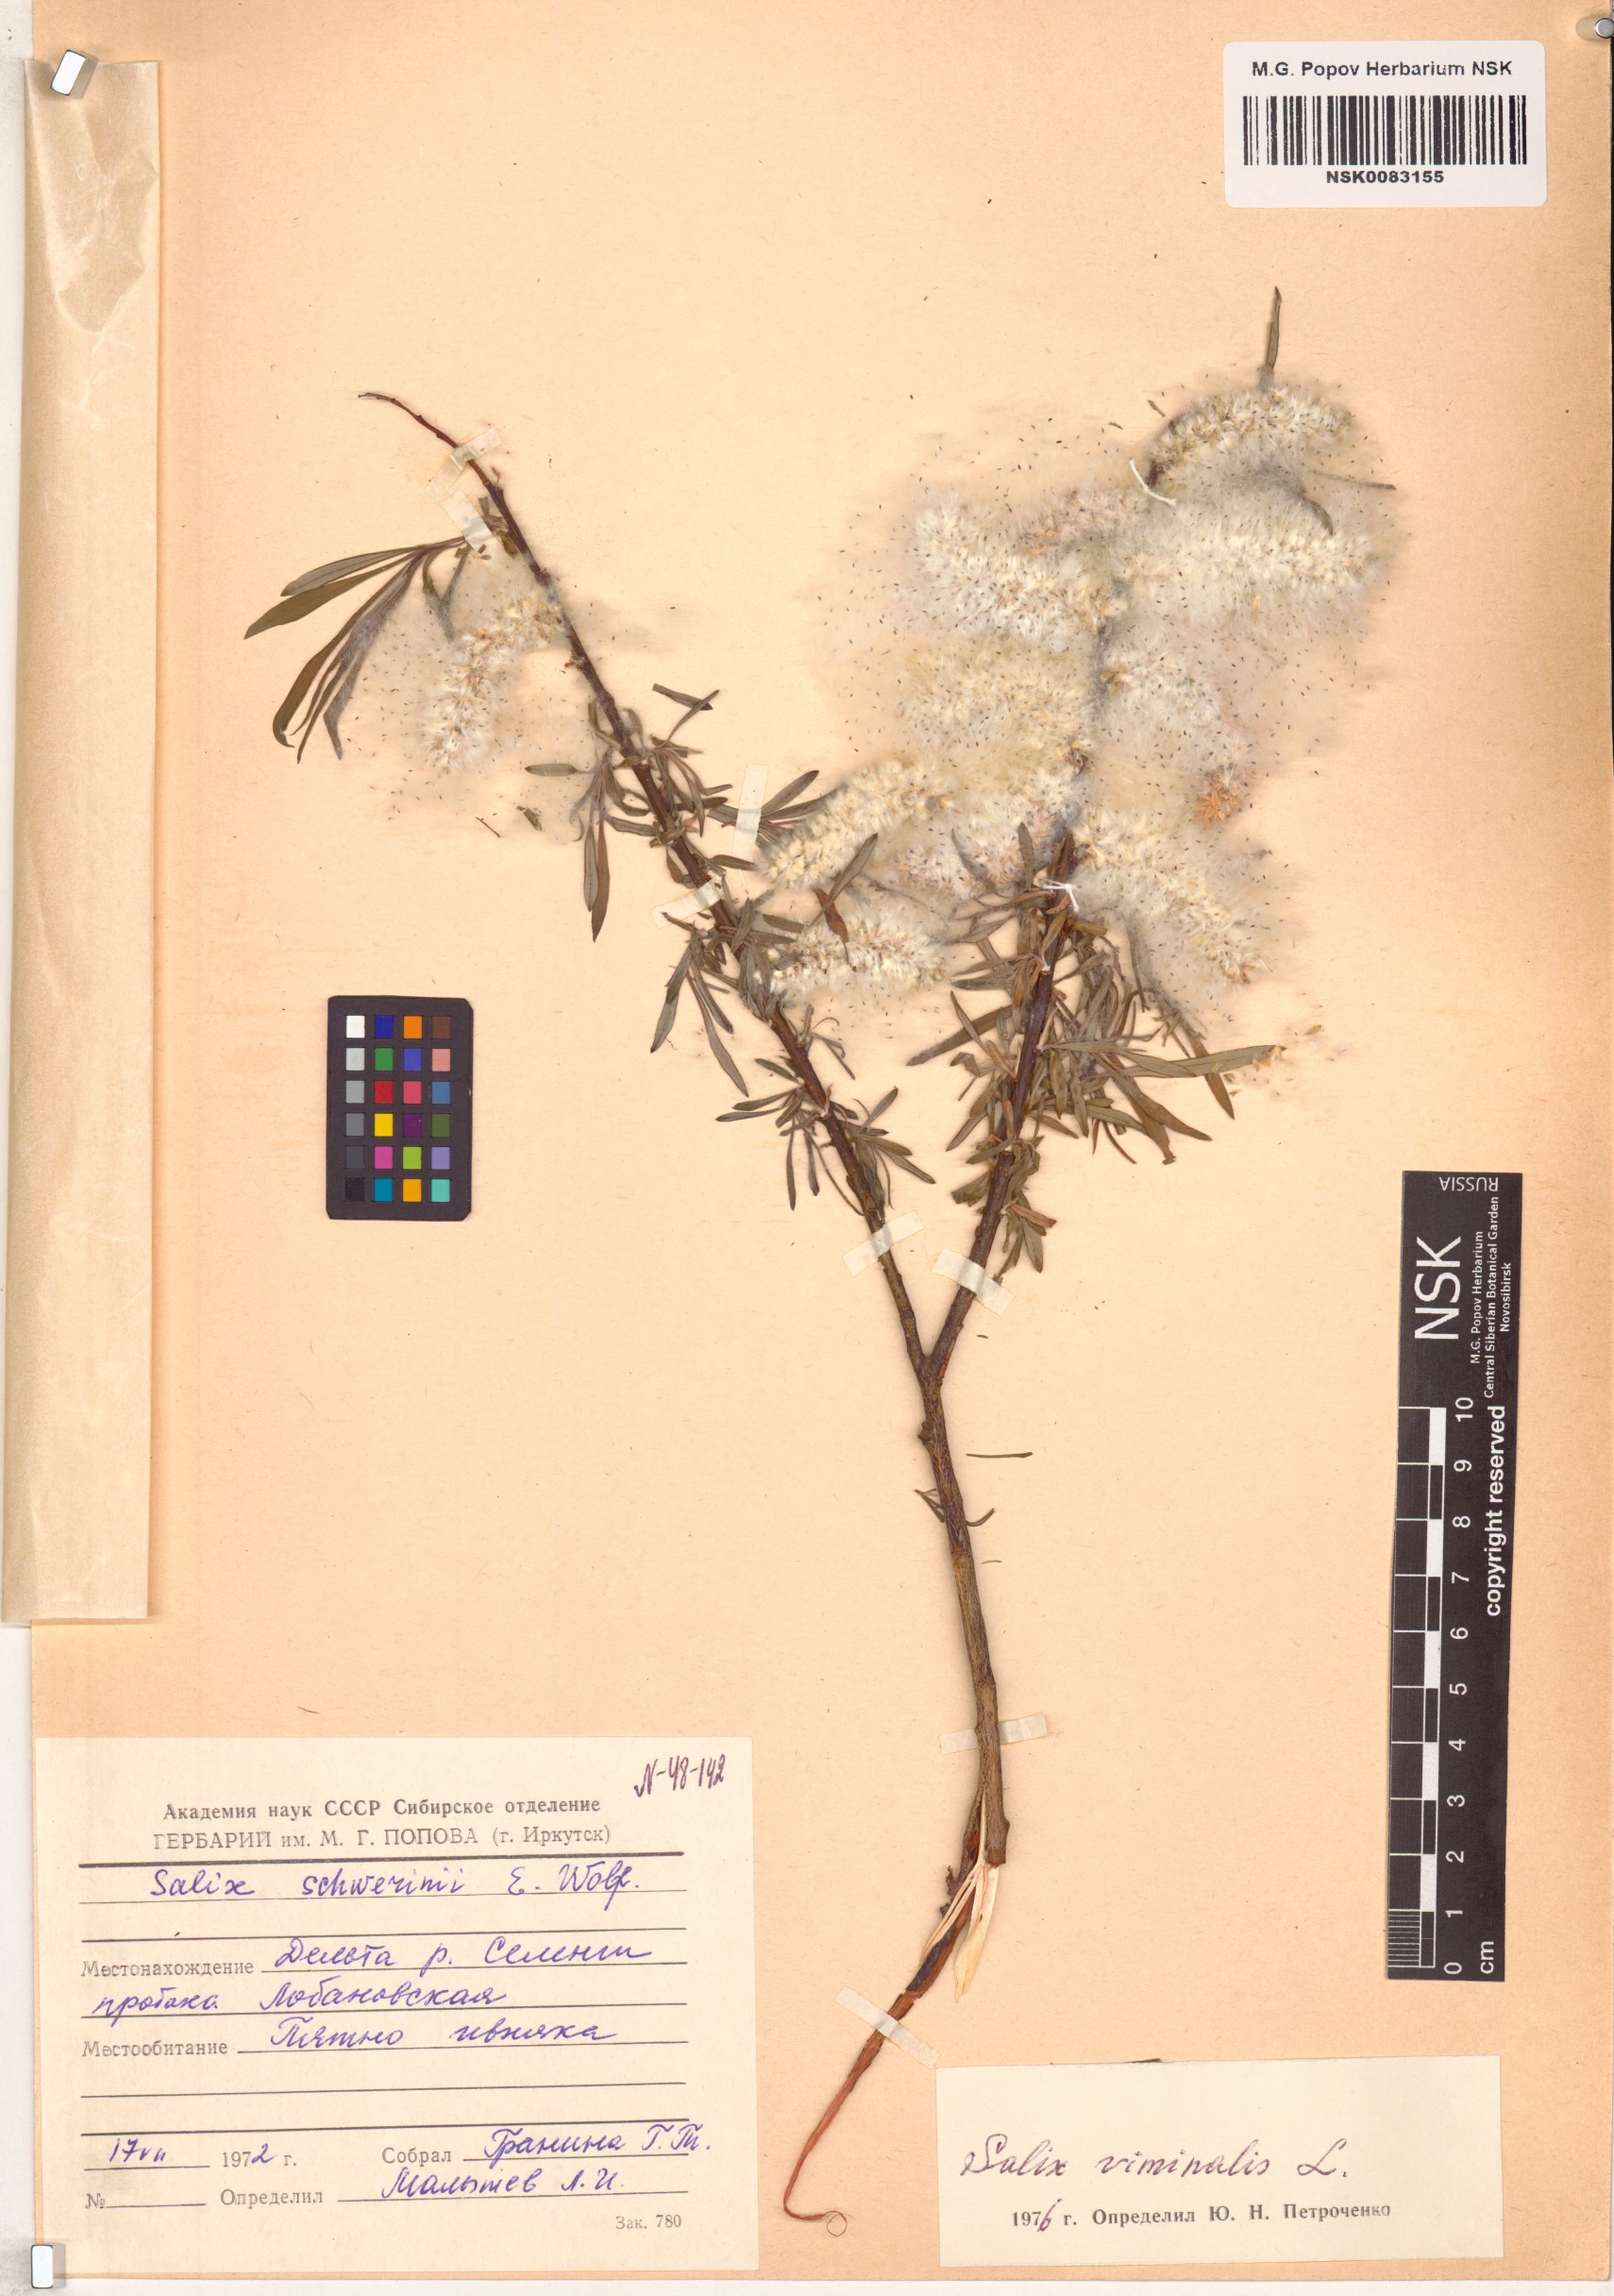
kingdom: Plantae
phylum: Tracheophyta
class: Magnoliopsida
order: Malpighiales
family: Salicaceae
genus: Salix
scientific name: Salix viminalis
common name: Osier
